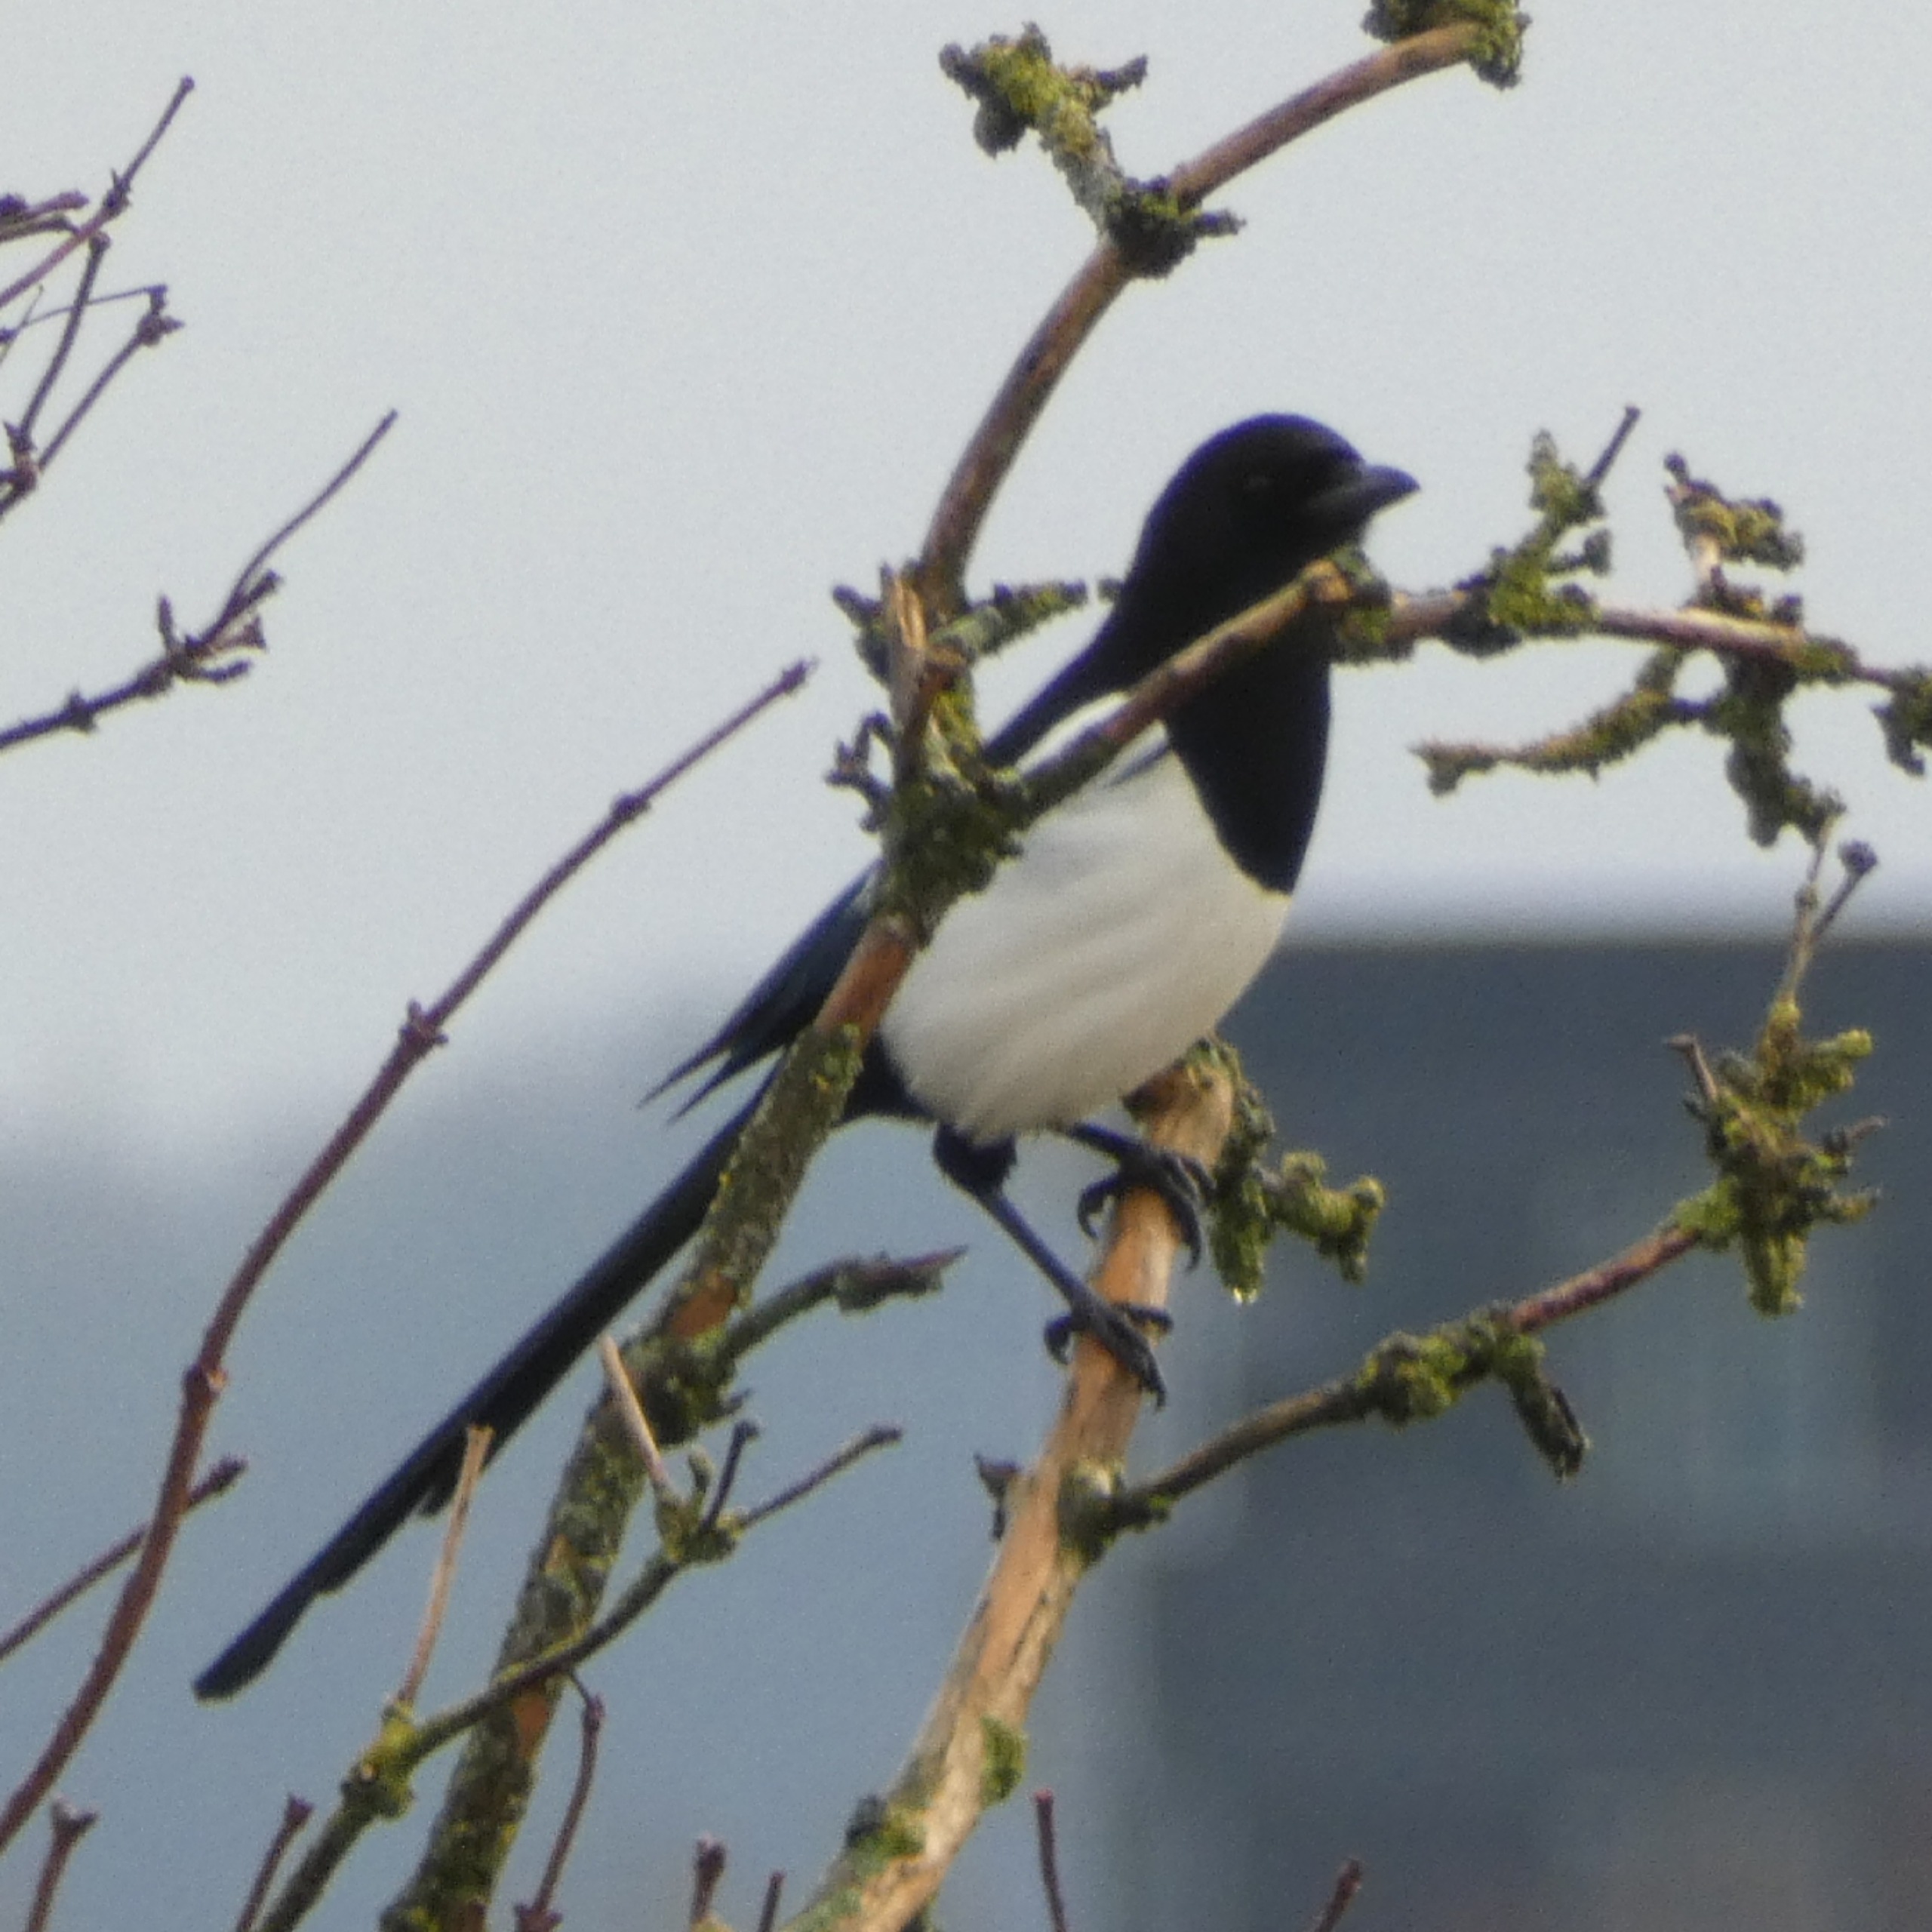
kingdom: Animalia
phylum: Chordata
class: Aves
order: Passeriformes
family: Corvidae
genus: Pica
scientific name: Pica pica
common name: Husskade
